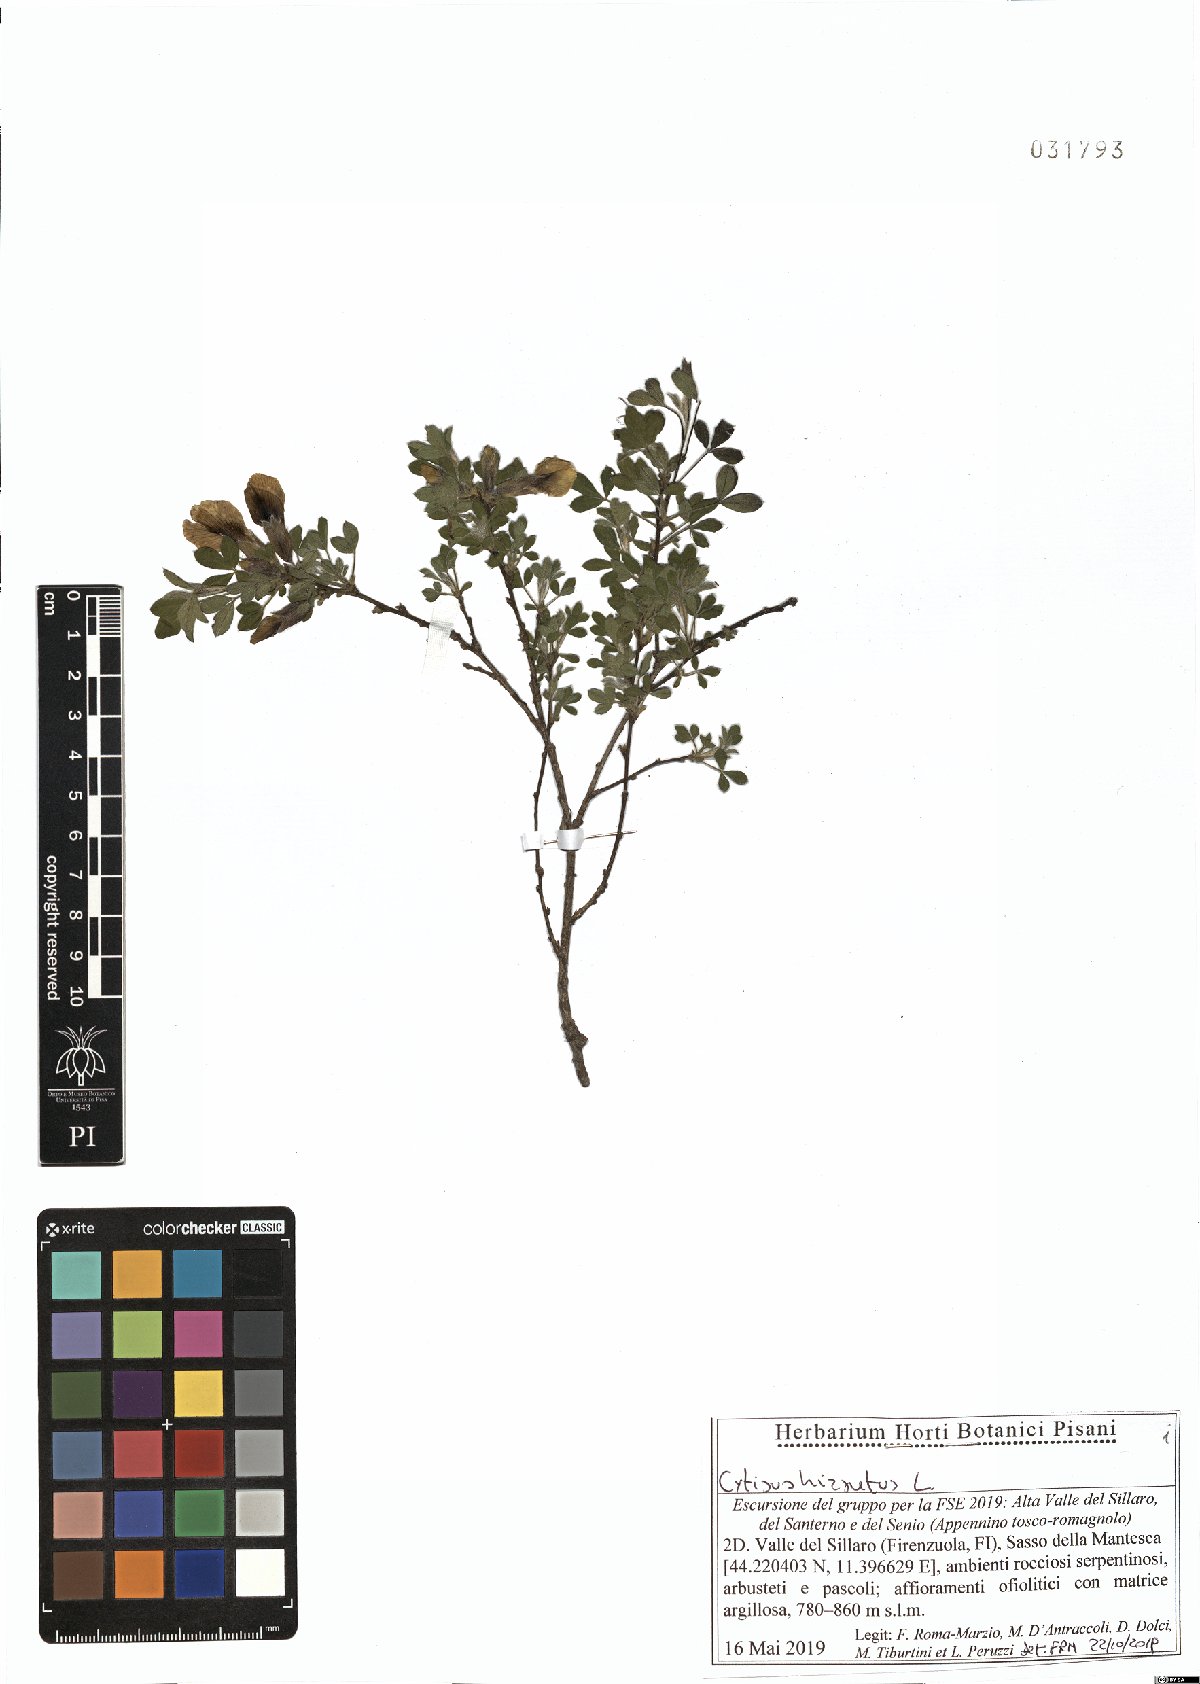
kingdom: Plantae
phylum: Tracheophyta
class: Magnoliopsida
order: Fabales
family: Fabaceae
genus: Chamaecytisus
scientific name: Chamaecytisus hirsutus
